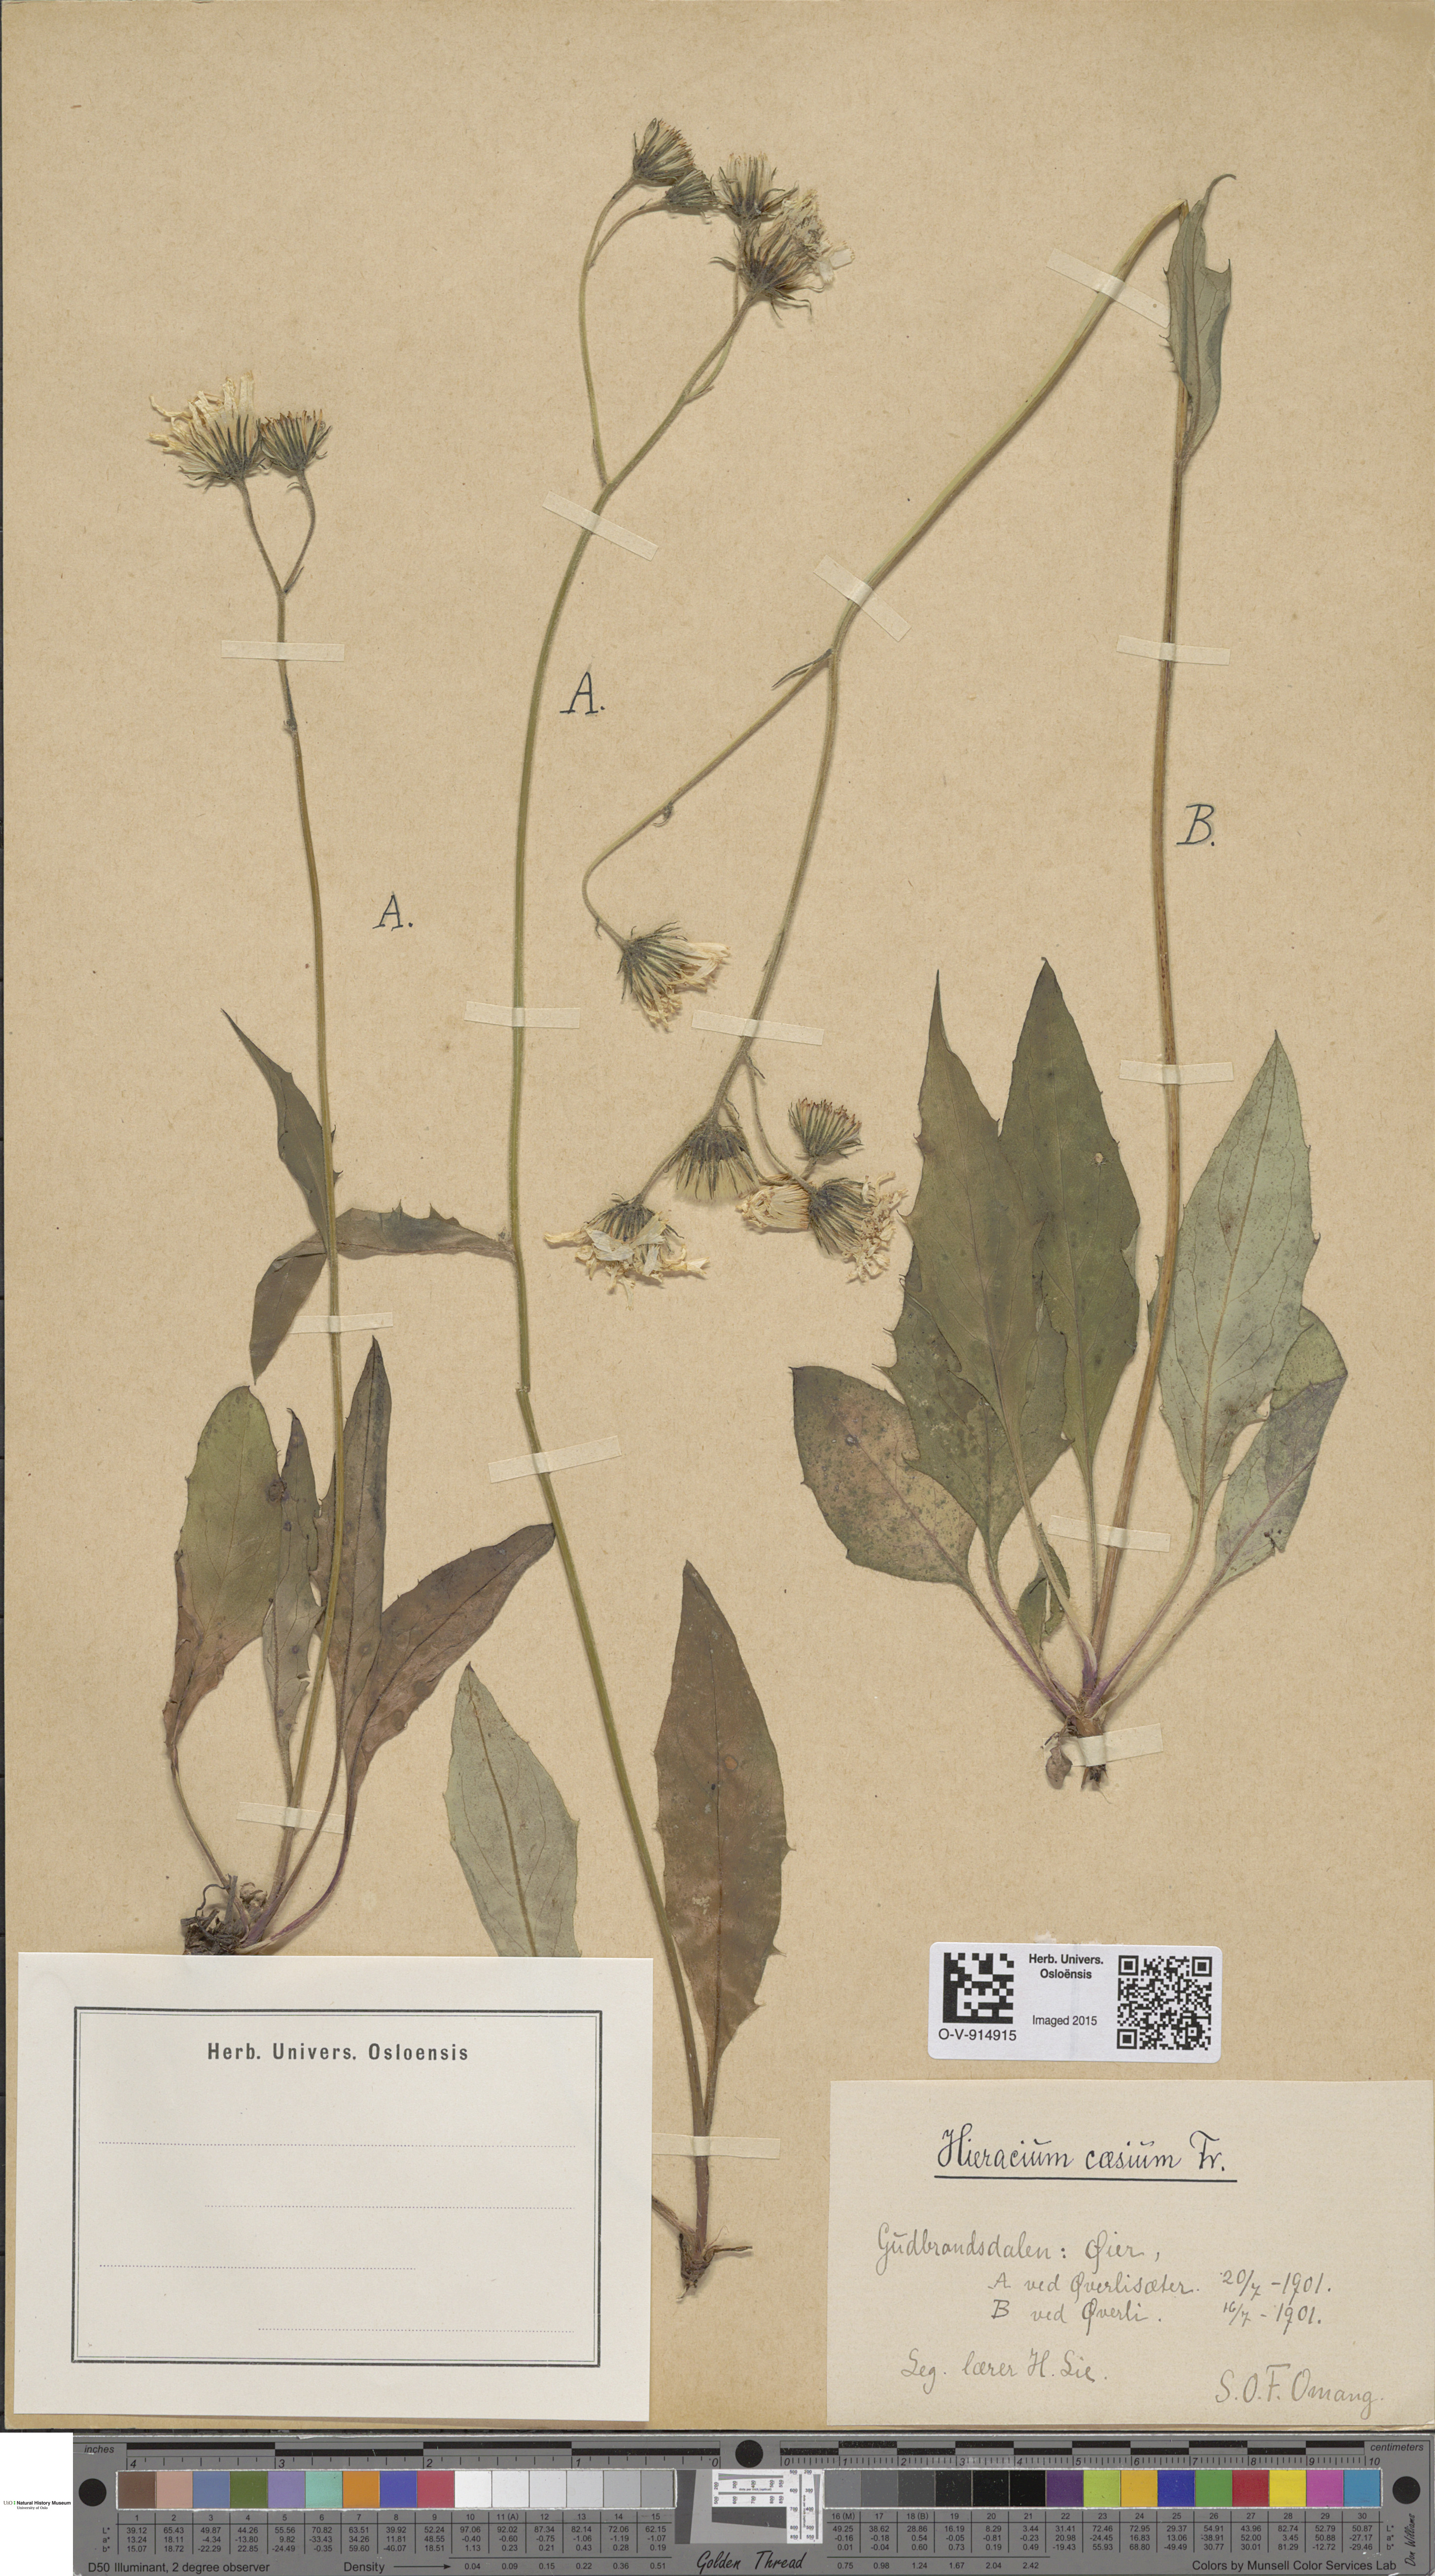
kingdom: Plantae
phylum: Tracheophyta
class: Magnoliopsida
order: Asterales
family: Asteraceae
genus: Hieracium
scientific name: Hieracium caesium
